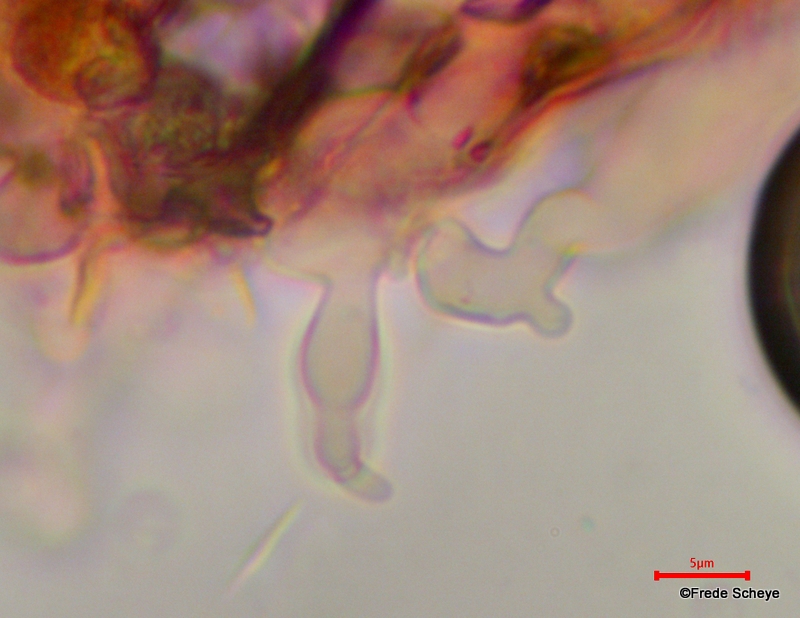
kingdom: Fungi
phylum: Basidiomycota
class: Agaricomycetes
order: Agaricales
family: Crepidotaceae
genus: Crepidotus
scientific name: Crepidotus kubickae
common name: gran-muslingesvamp
